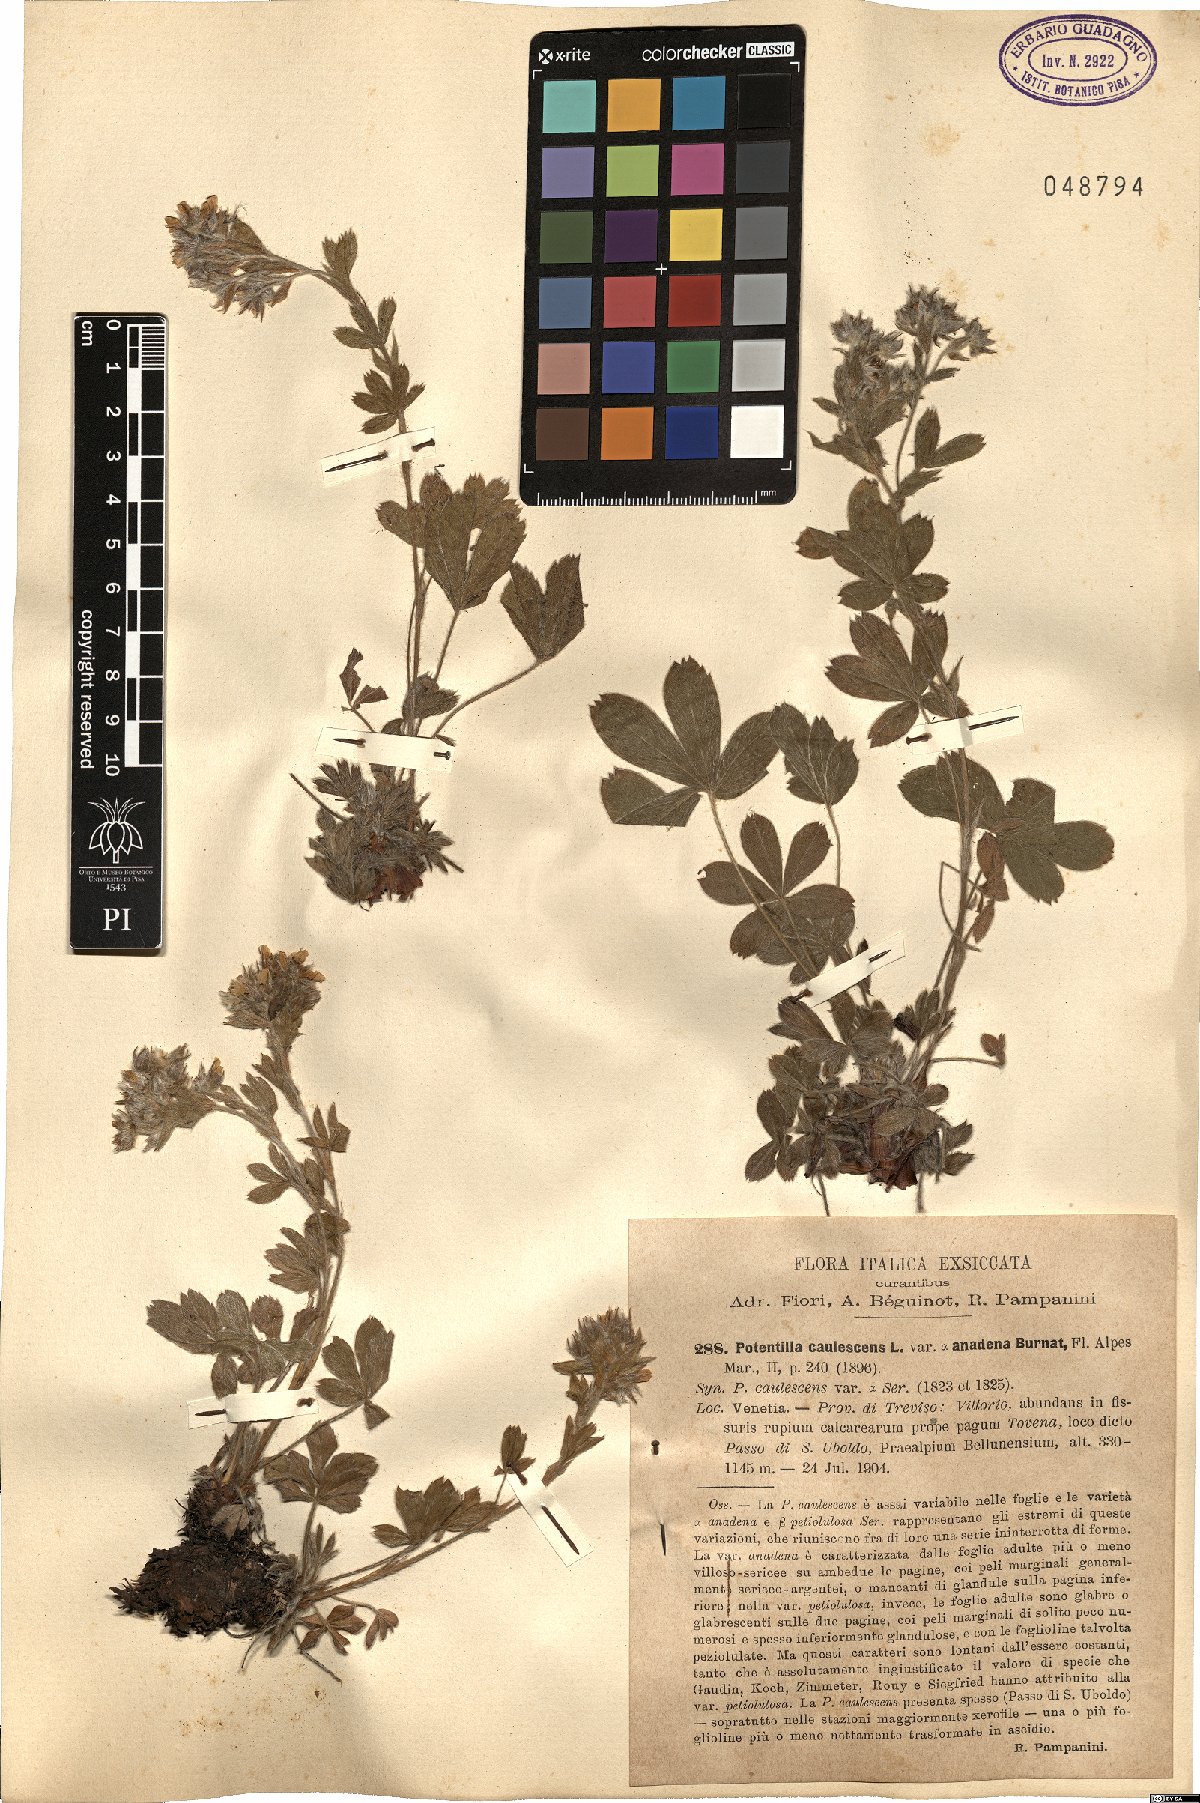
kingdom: Plantae
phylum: Tracheophyta
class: Magnoliopsida
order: Rosales
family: Rosaceae
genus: Potentilla
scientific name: Potentilla caulescens
